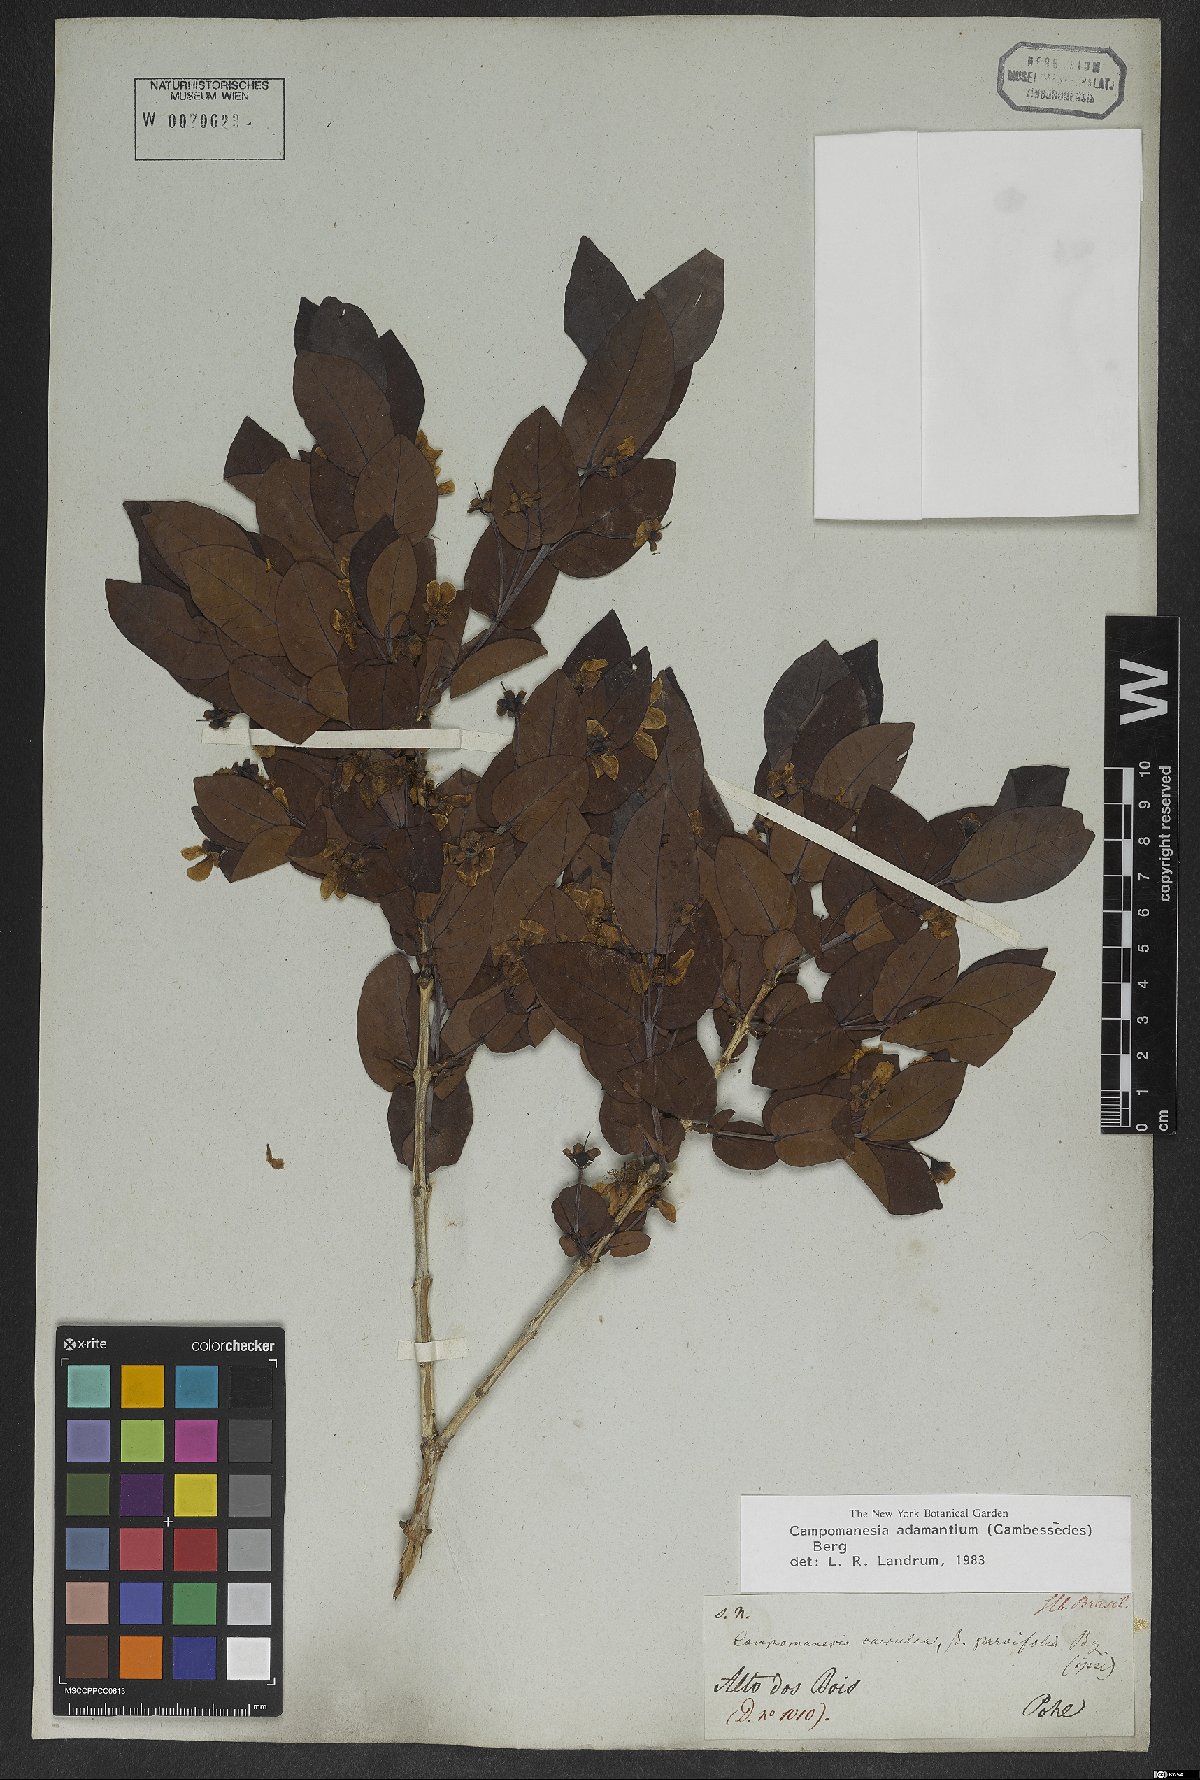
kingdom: Plantae
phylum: Tracheophyta
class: Magnoliopsida
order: Myrtales
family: Myrtaceae
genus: Campomanesia
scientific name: Campomanesia adamantium
